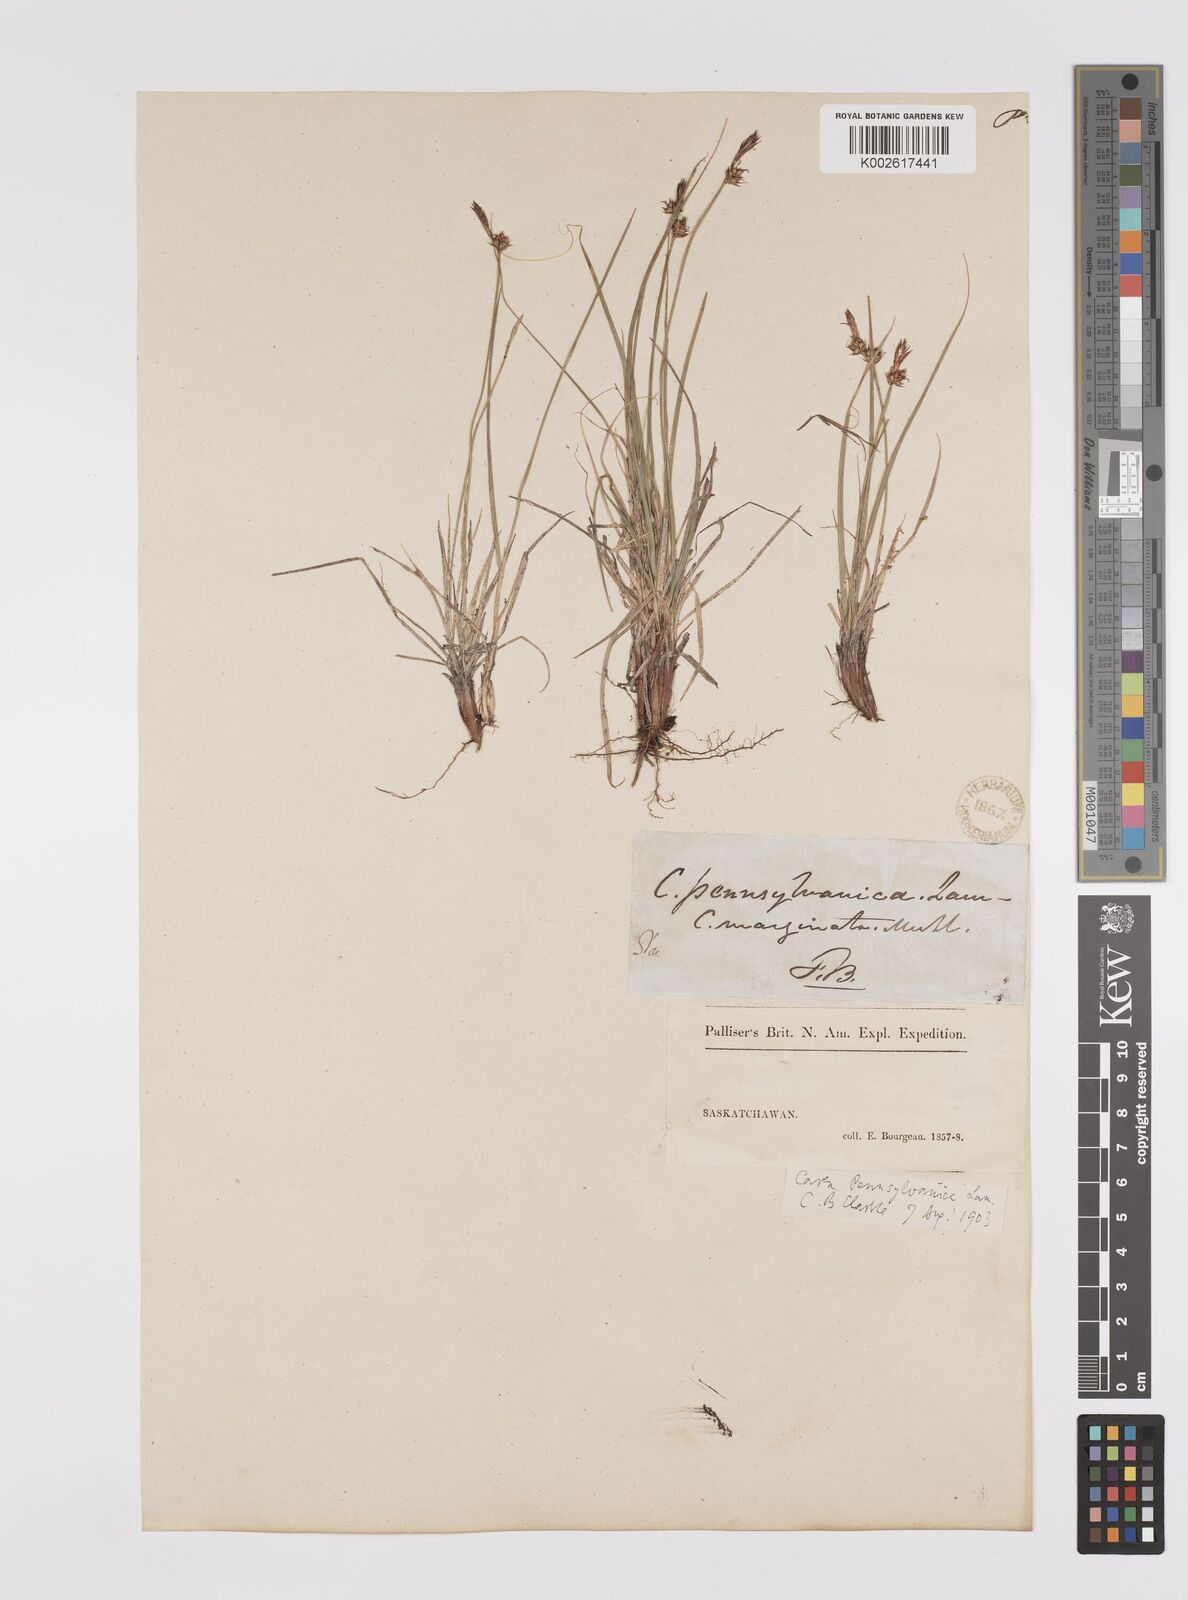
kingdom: Plantae
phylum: Tracheophyta
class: Liliopsida
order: Poales
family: Cyperaceae
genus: Carex
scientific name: Carex pensylvanica
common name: Common oak sedge
